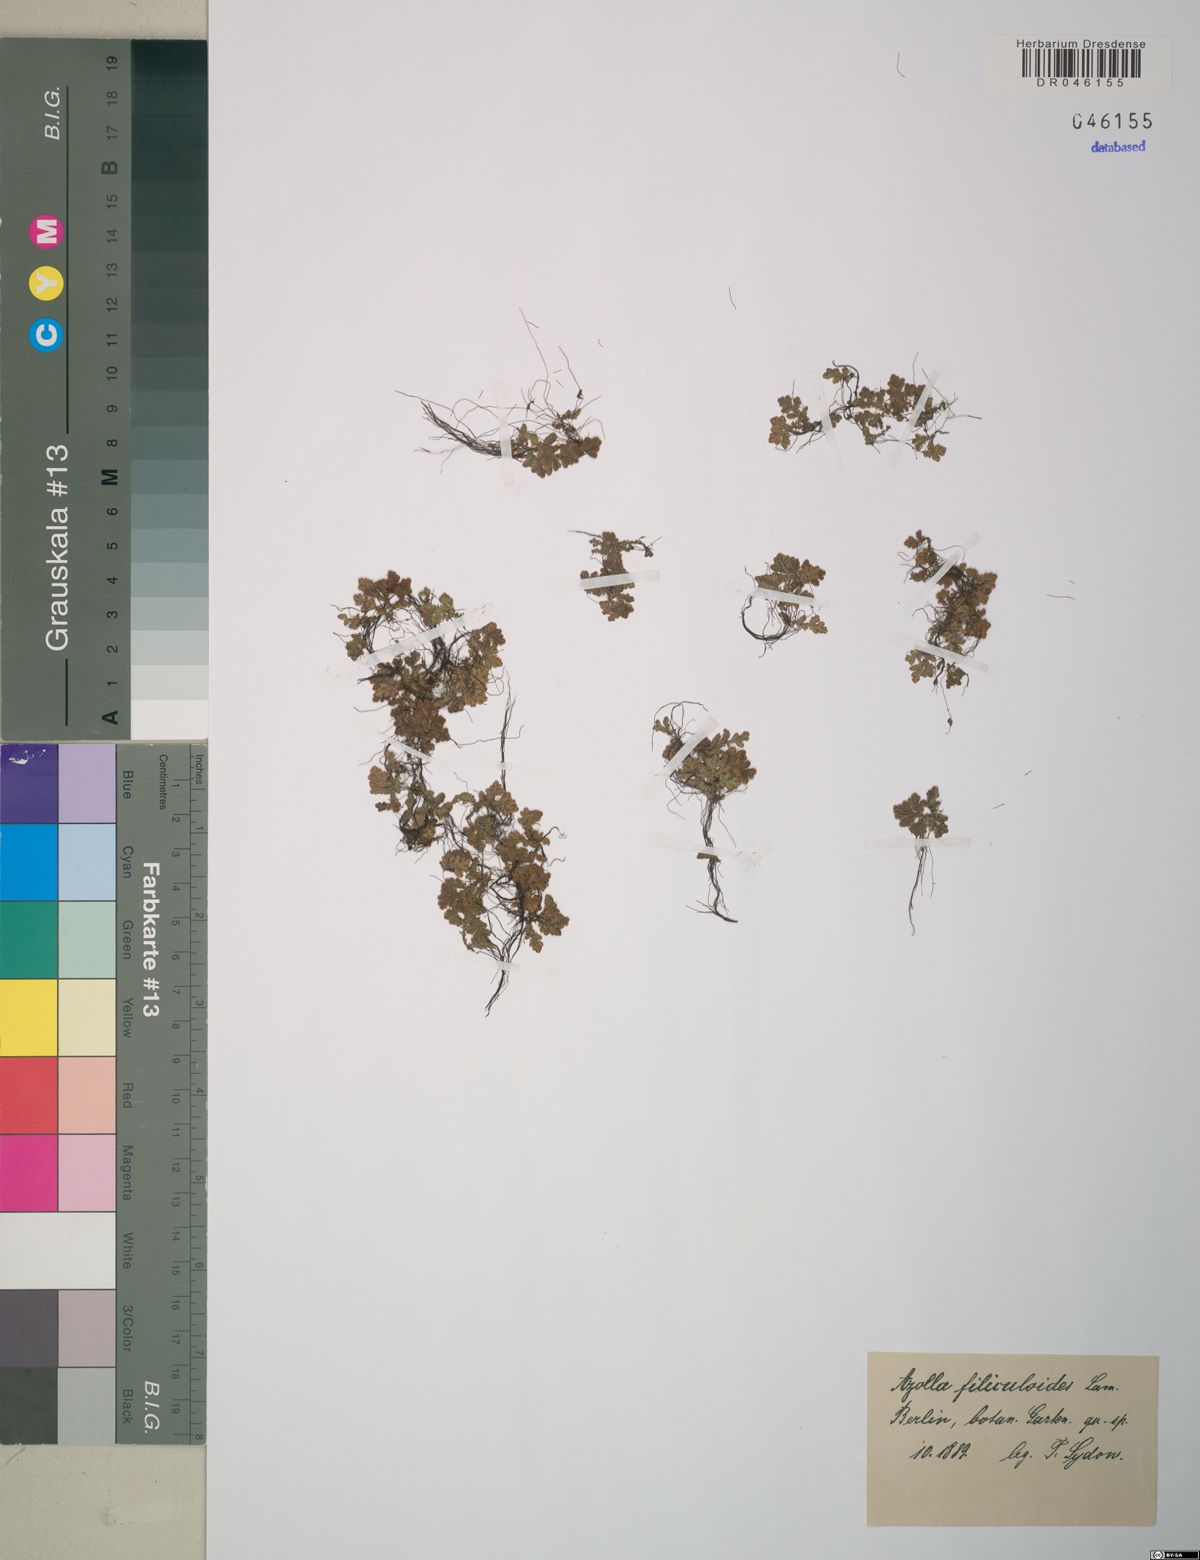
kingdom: Plantae
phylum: Tracheophyta
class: Polypodiopsida
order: Salviniales
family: Salviniaceae
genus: Azolla
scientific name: Azolla filiculoides
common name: Water fern
